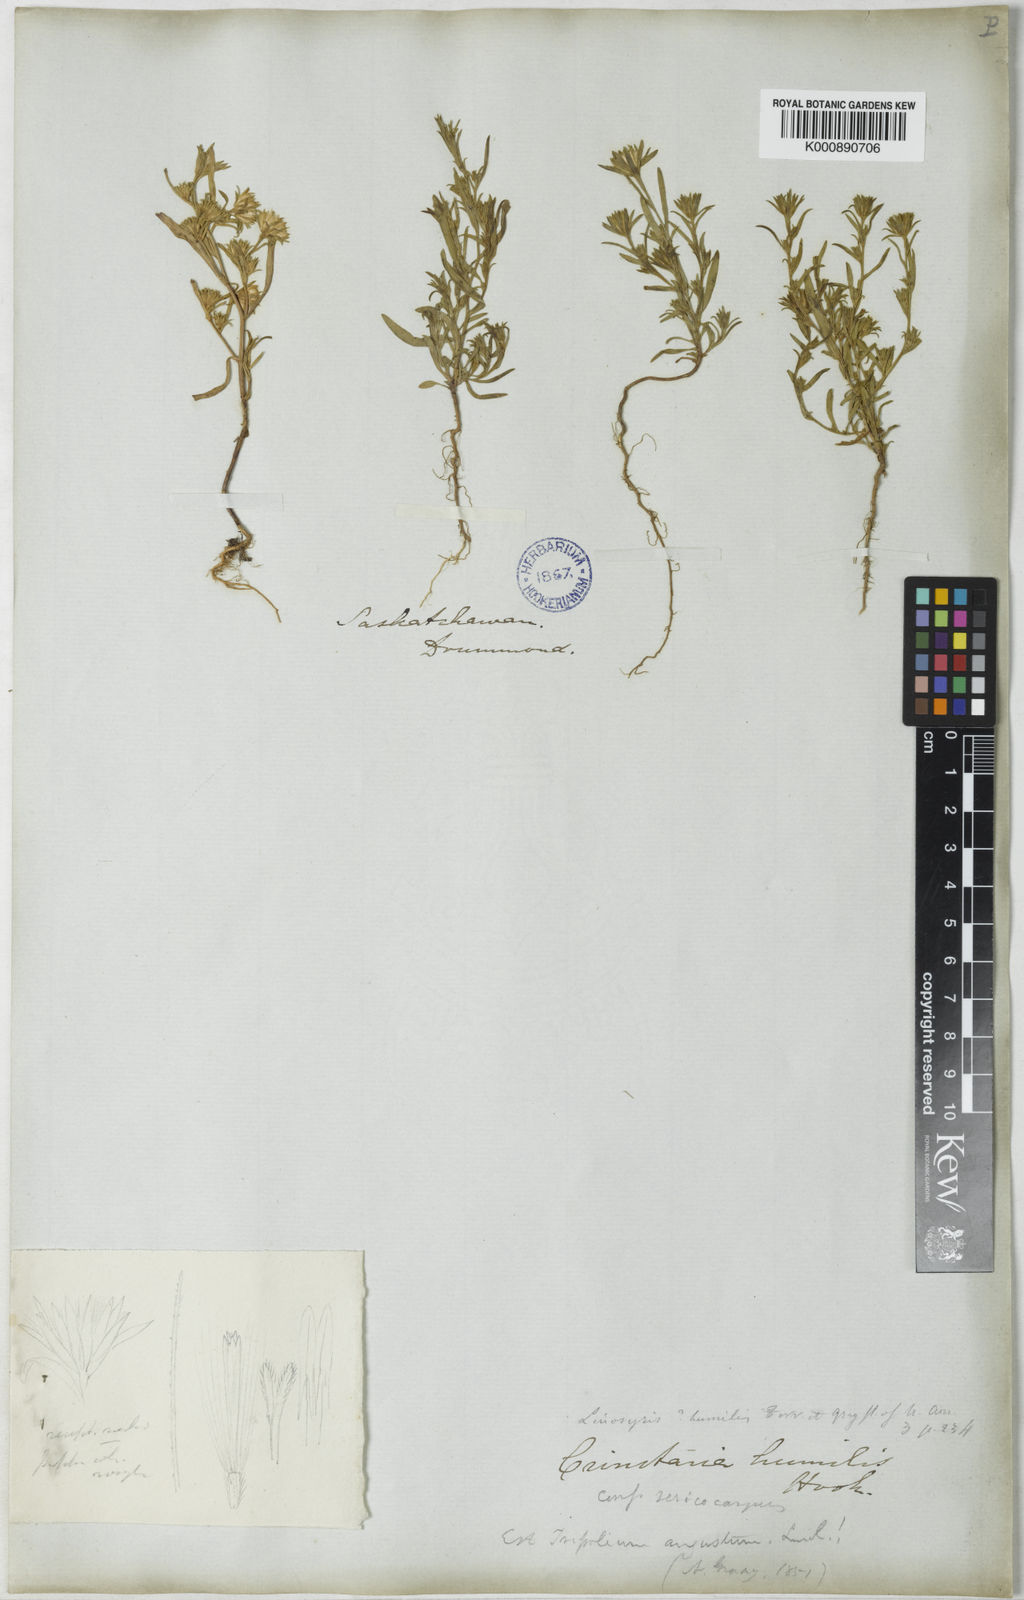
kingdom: Plantae
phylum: Tracheophyta
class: Magnoliopsida
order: Asterales
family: Asteraceae
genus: Aster
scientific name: Aster
